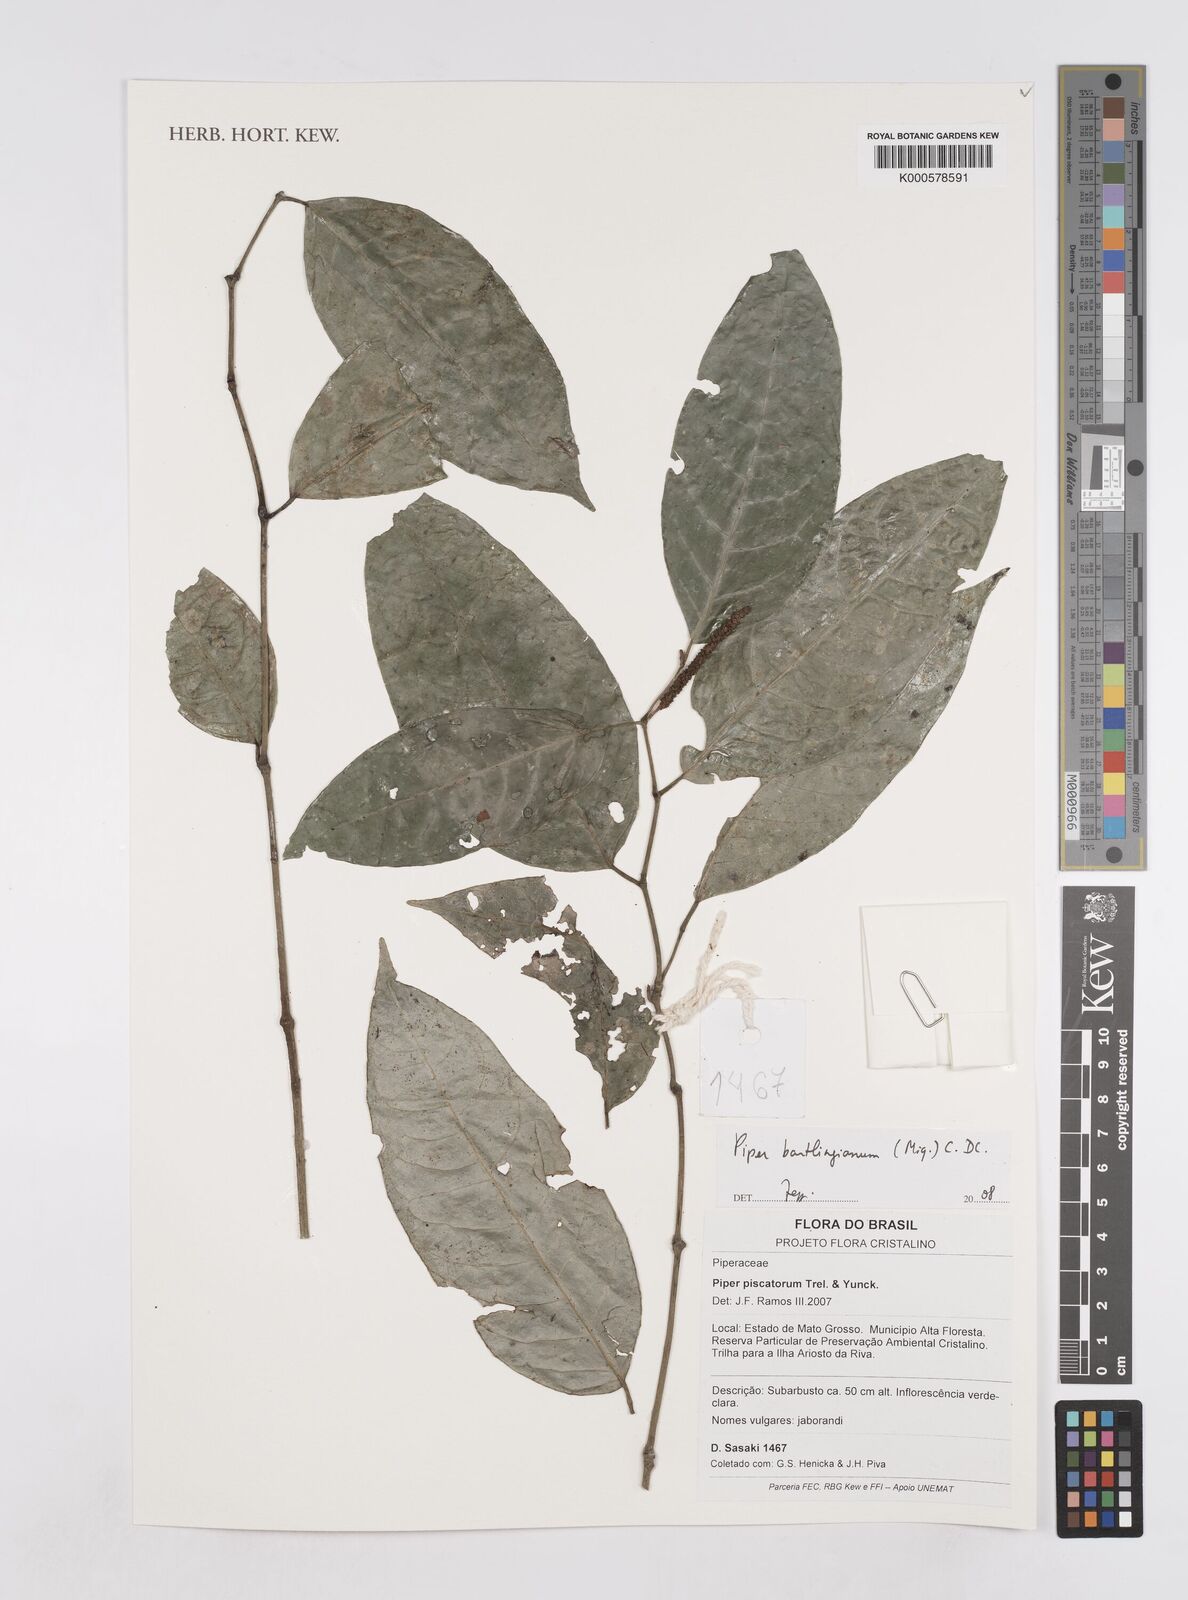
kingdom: Plantae
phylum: Tracheophyta
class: Magnoliopsida
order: Piperales
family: Piperaceae
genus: Piper
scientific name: Piper bartlingianum
